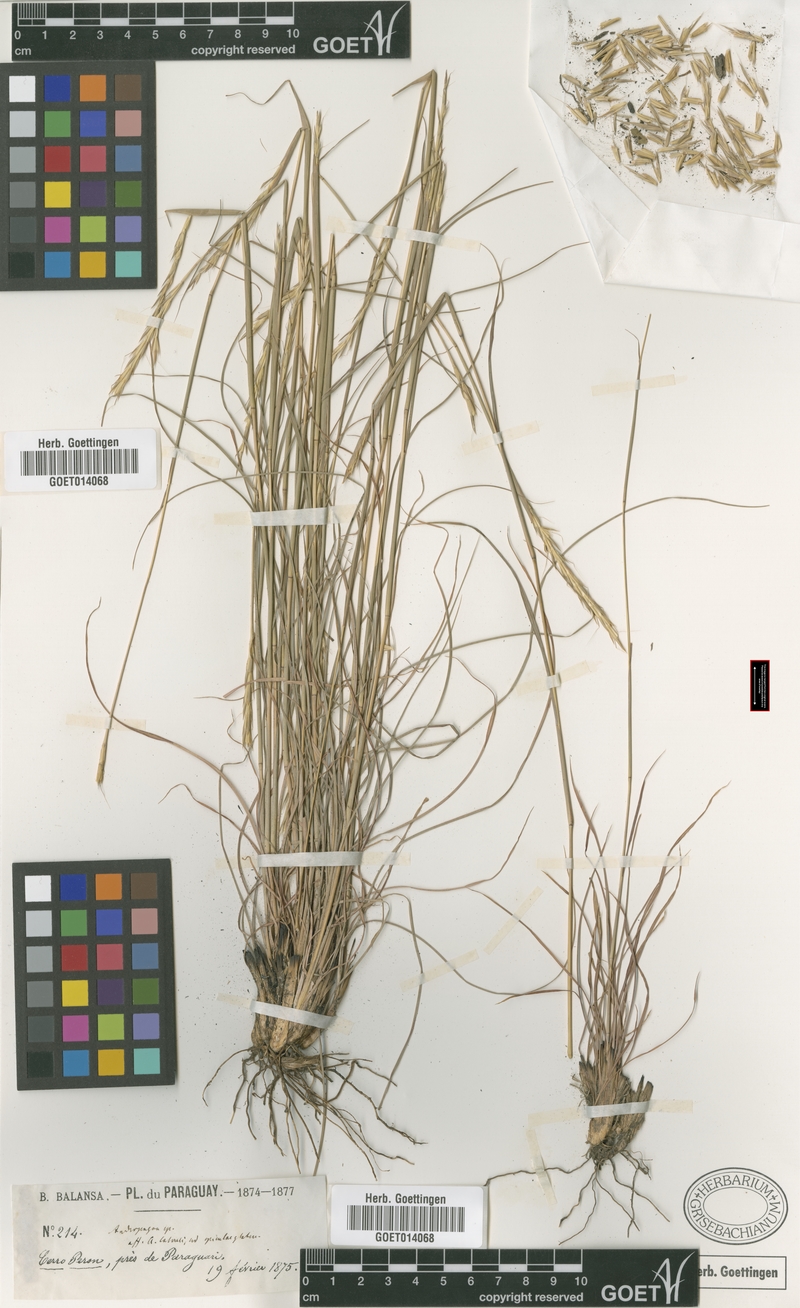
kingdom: Plantae
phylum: Tracheophyta
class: Liliopsida
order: Poales
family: Poaceae
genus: Andropogon
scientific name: Andropogon salzmannii
